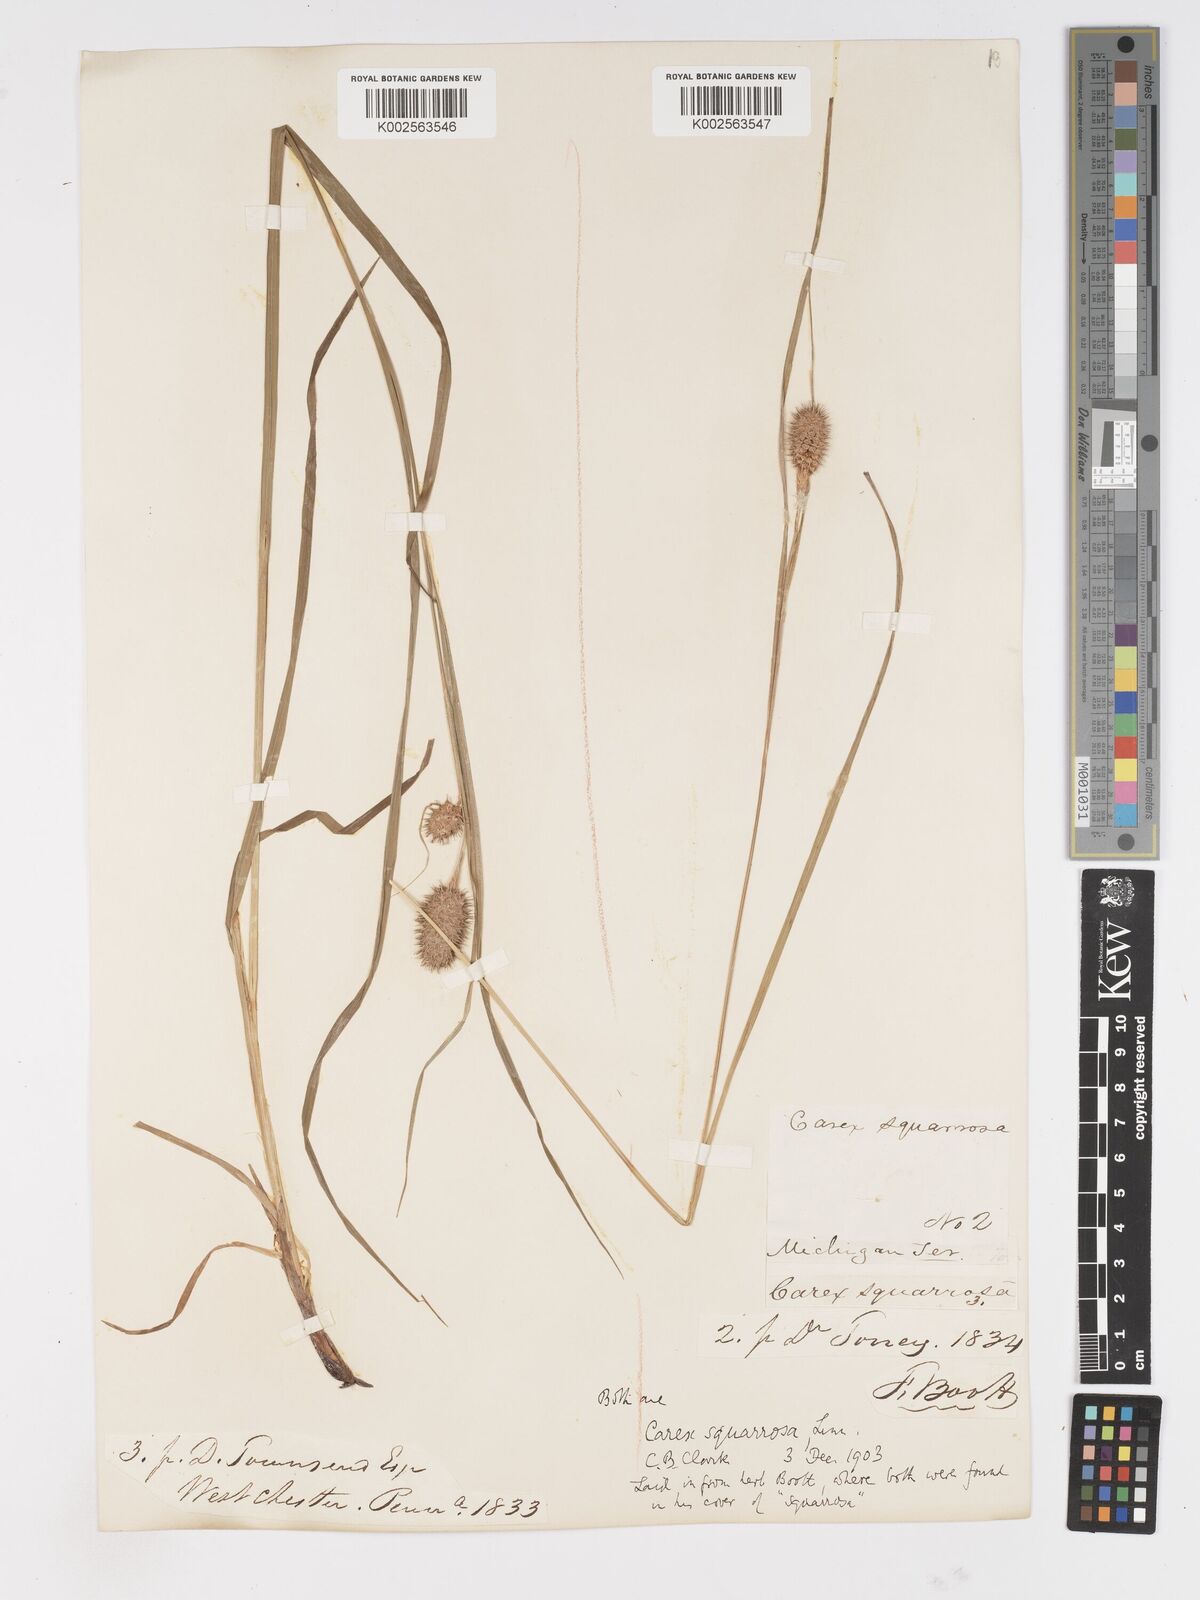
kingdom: Plantae
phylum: Tracheophyta
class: Liliopsida
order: Poales
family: Cyperaceae
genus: Carex
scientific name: Carex squarrosa
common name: Narrow-leaved cattail sedge
